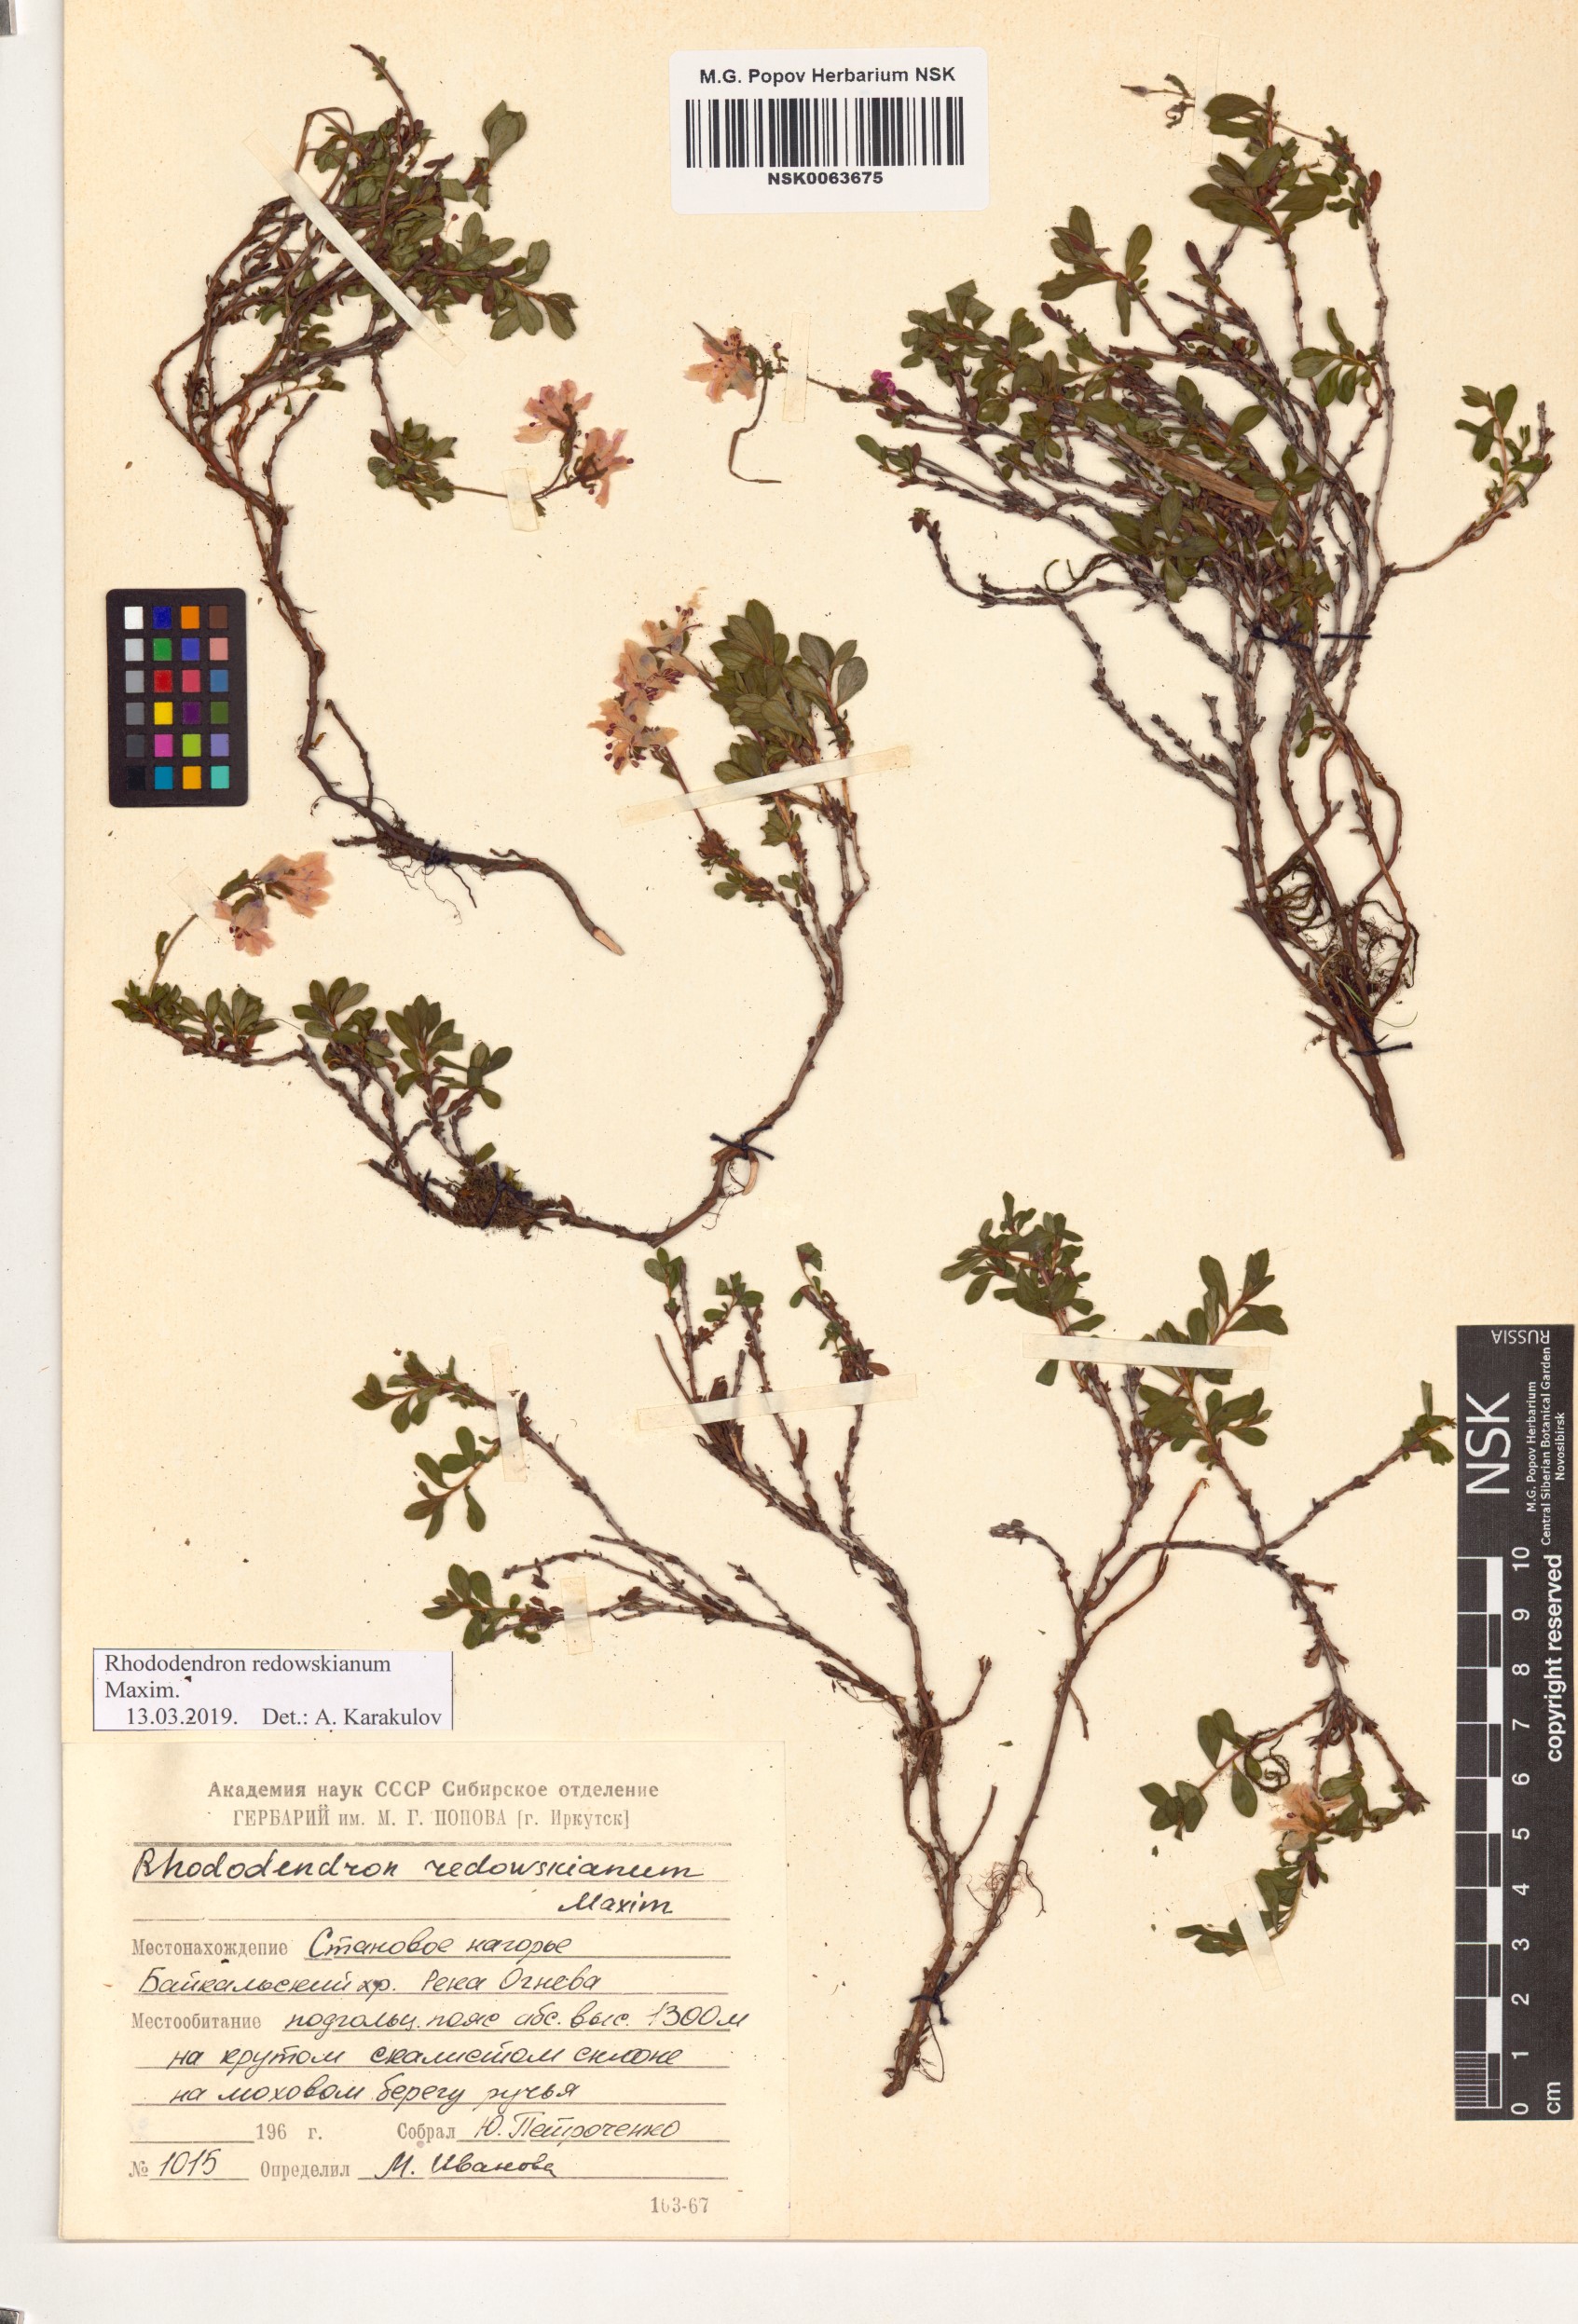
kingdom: Plantae
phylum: Tracheophyta
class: Magnoliopsida
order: Ericales
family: Ericaceae
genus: Rhododendron
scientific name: Rhododendron redowskianum
